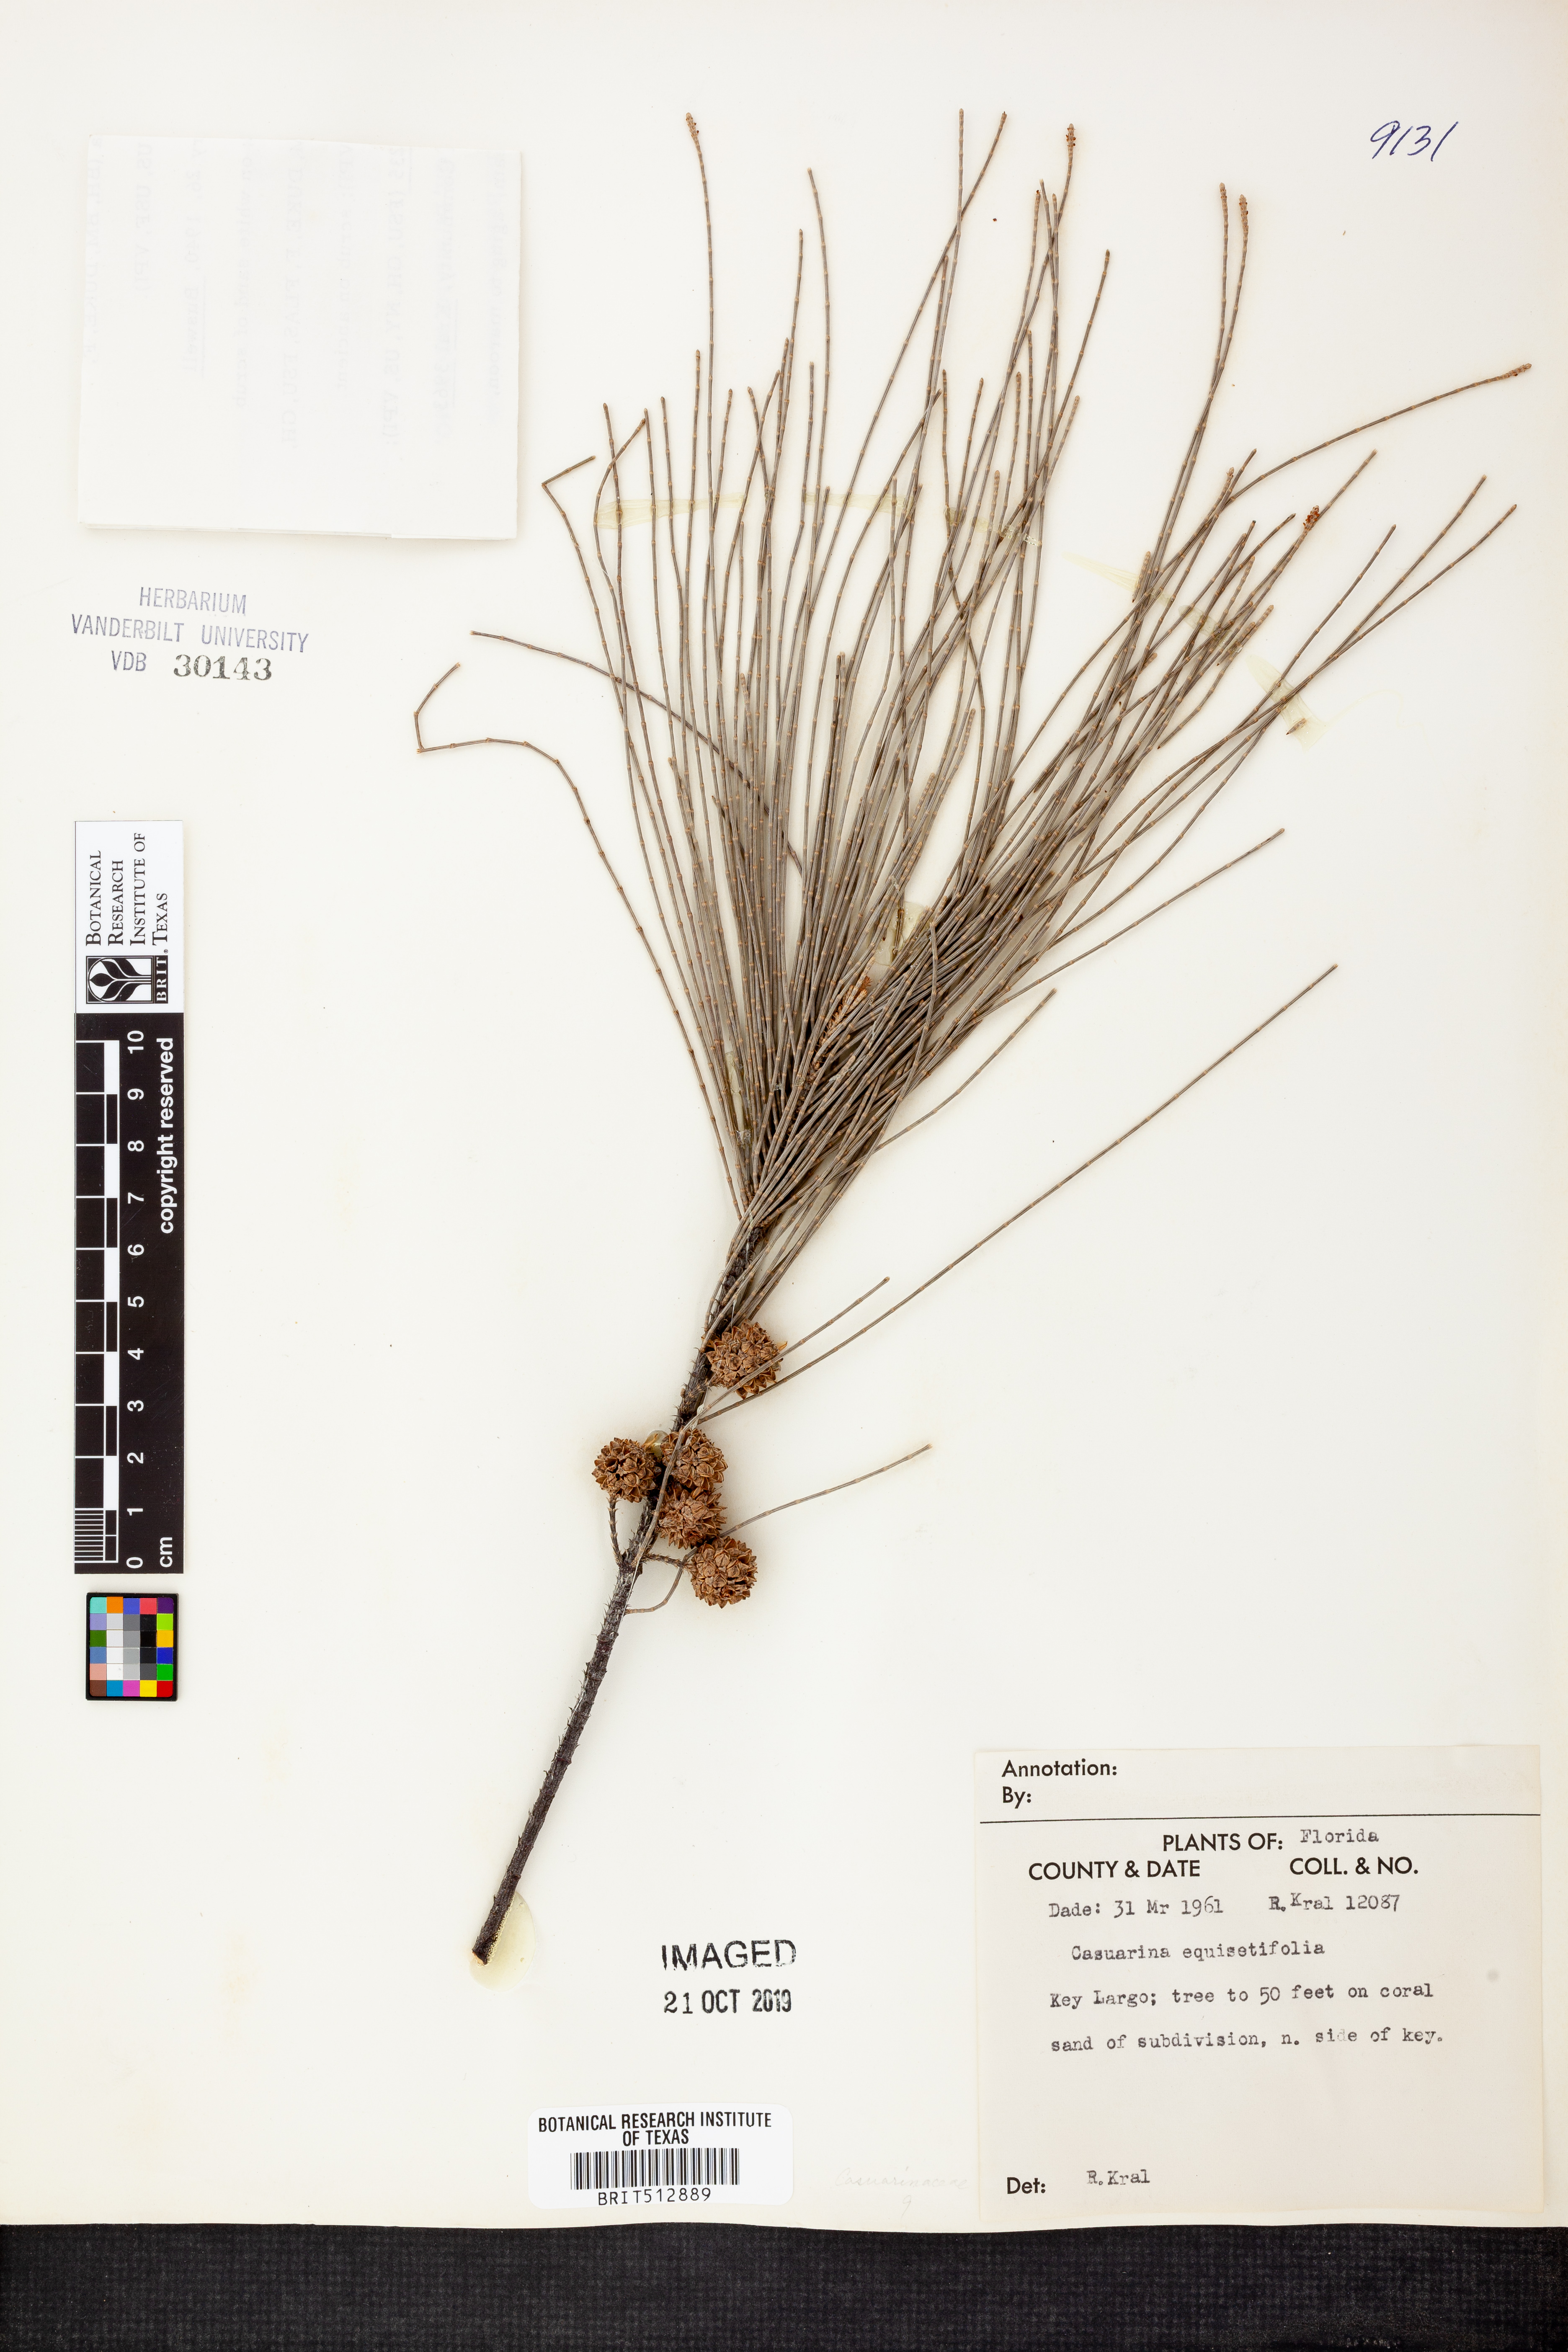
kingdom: Plantae
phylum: Tracheophyta
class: Magnoliopsida
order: Fagales
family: Casuarinaceae
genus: Casuarina
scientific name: Casuarina equisetifolia
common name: Beach sheoak
